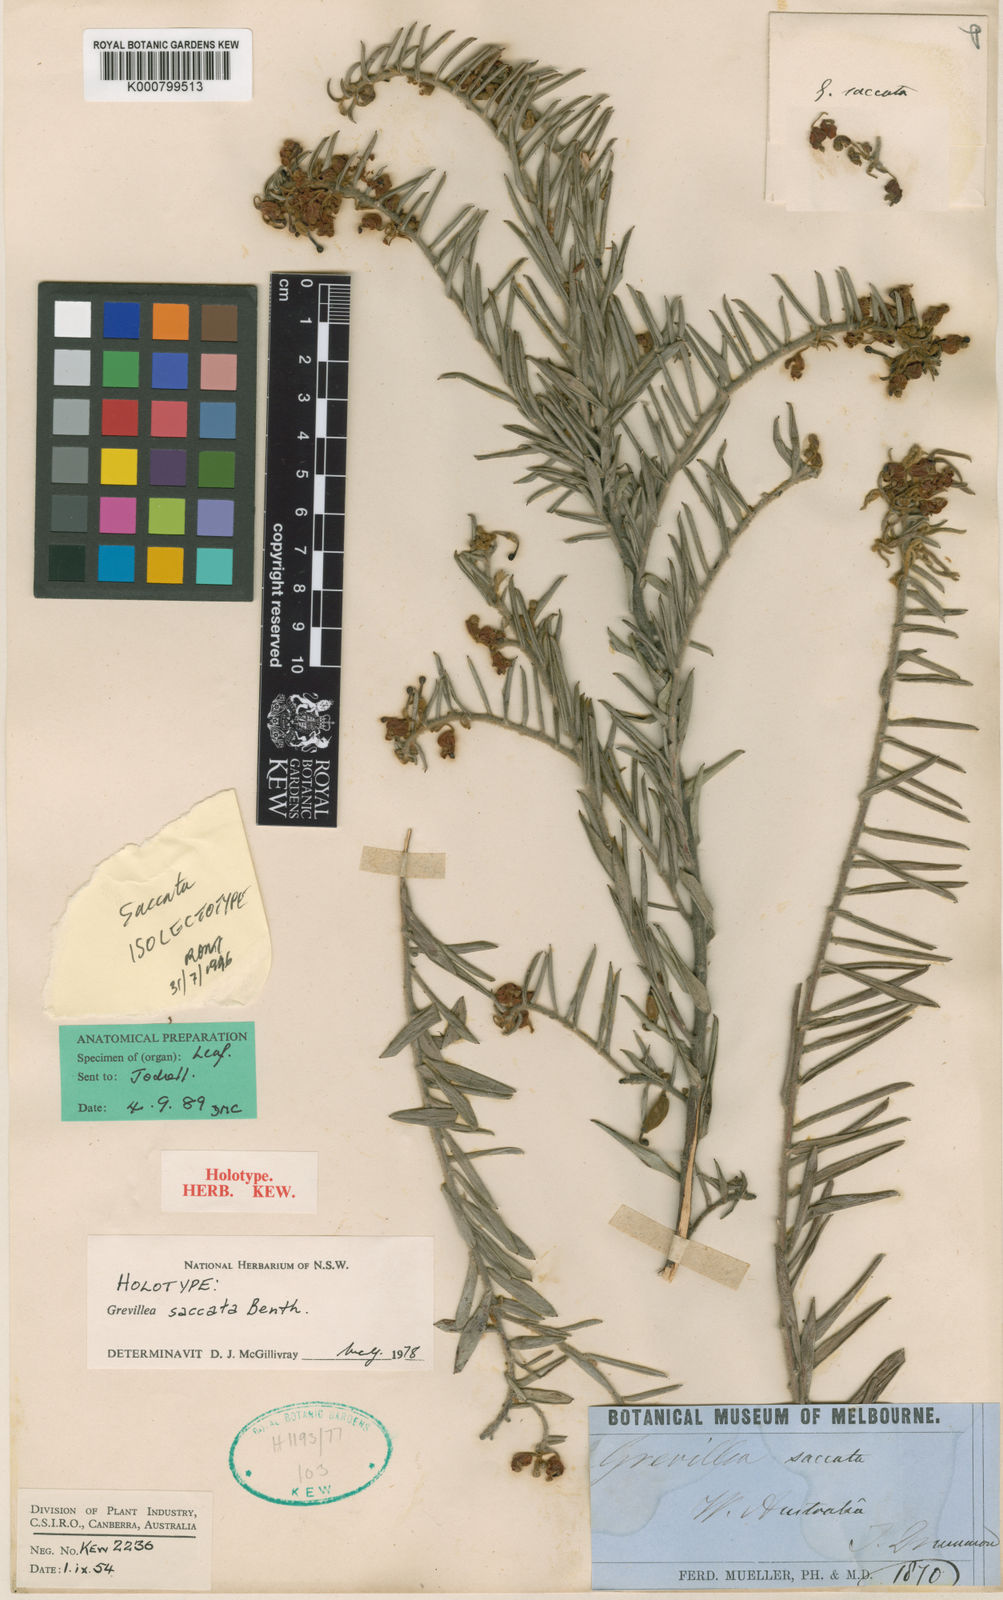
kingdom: Plantae
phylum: Tracheophyta
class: Magnoliopsida
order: Proteales
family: Proteaceae
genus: Grevillea
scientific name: Grevillea saccata
